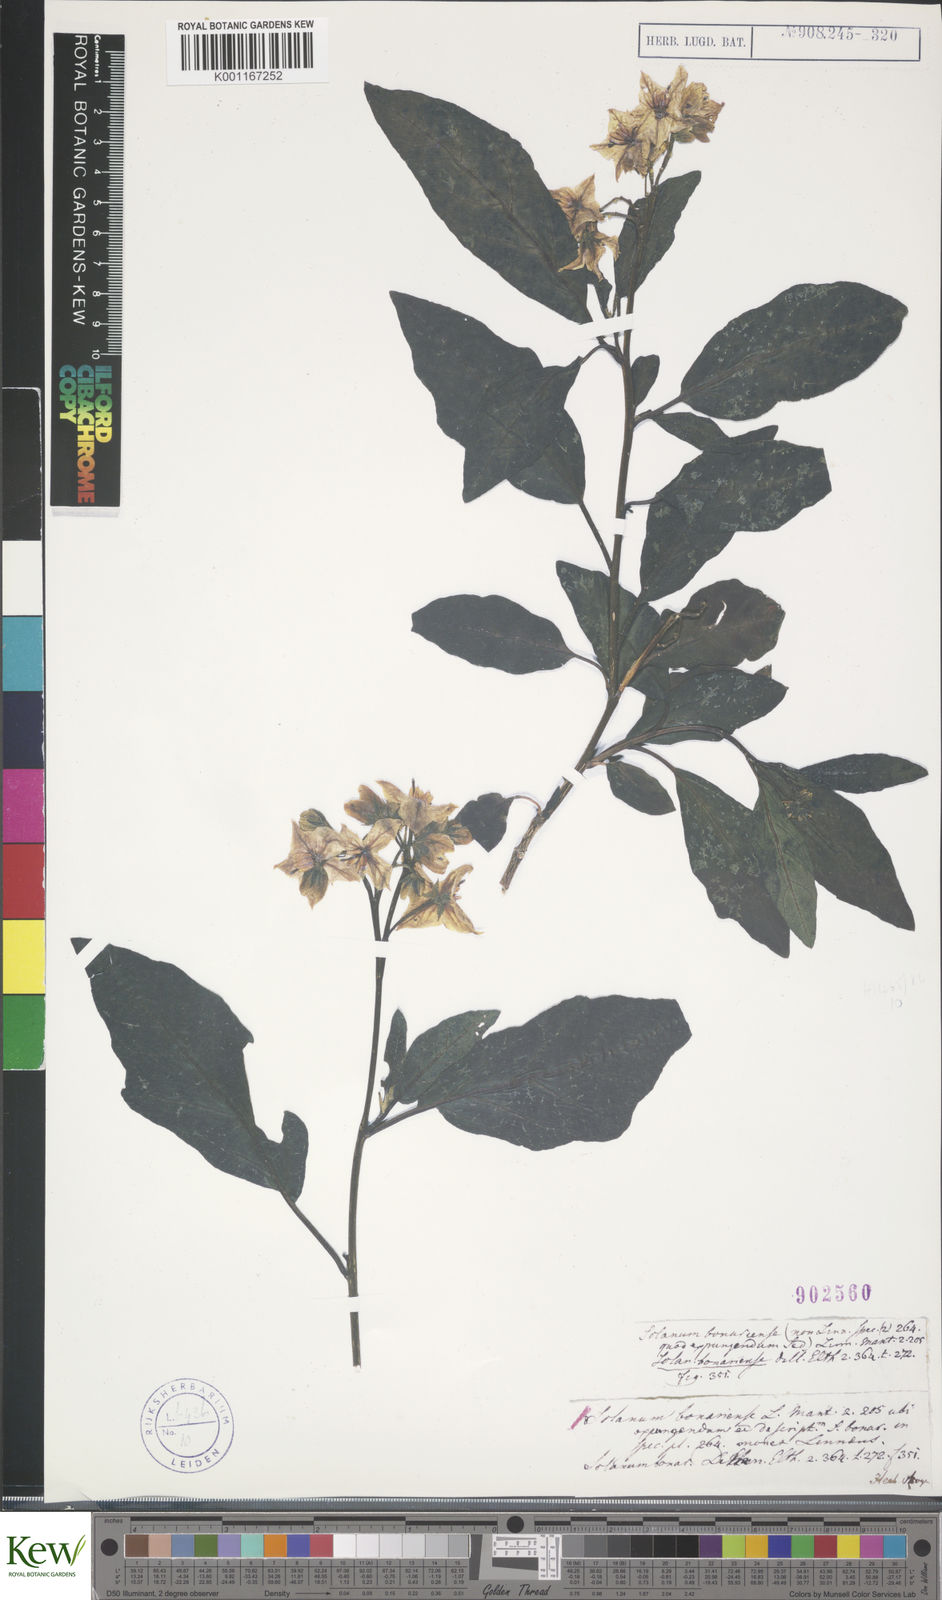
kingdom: Plantae
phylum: Tracheophyta
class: Magnoliopsida
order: Solanales
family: Solanaceae
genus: Solanum
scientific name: Solanum bonariense
